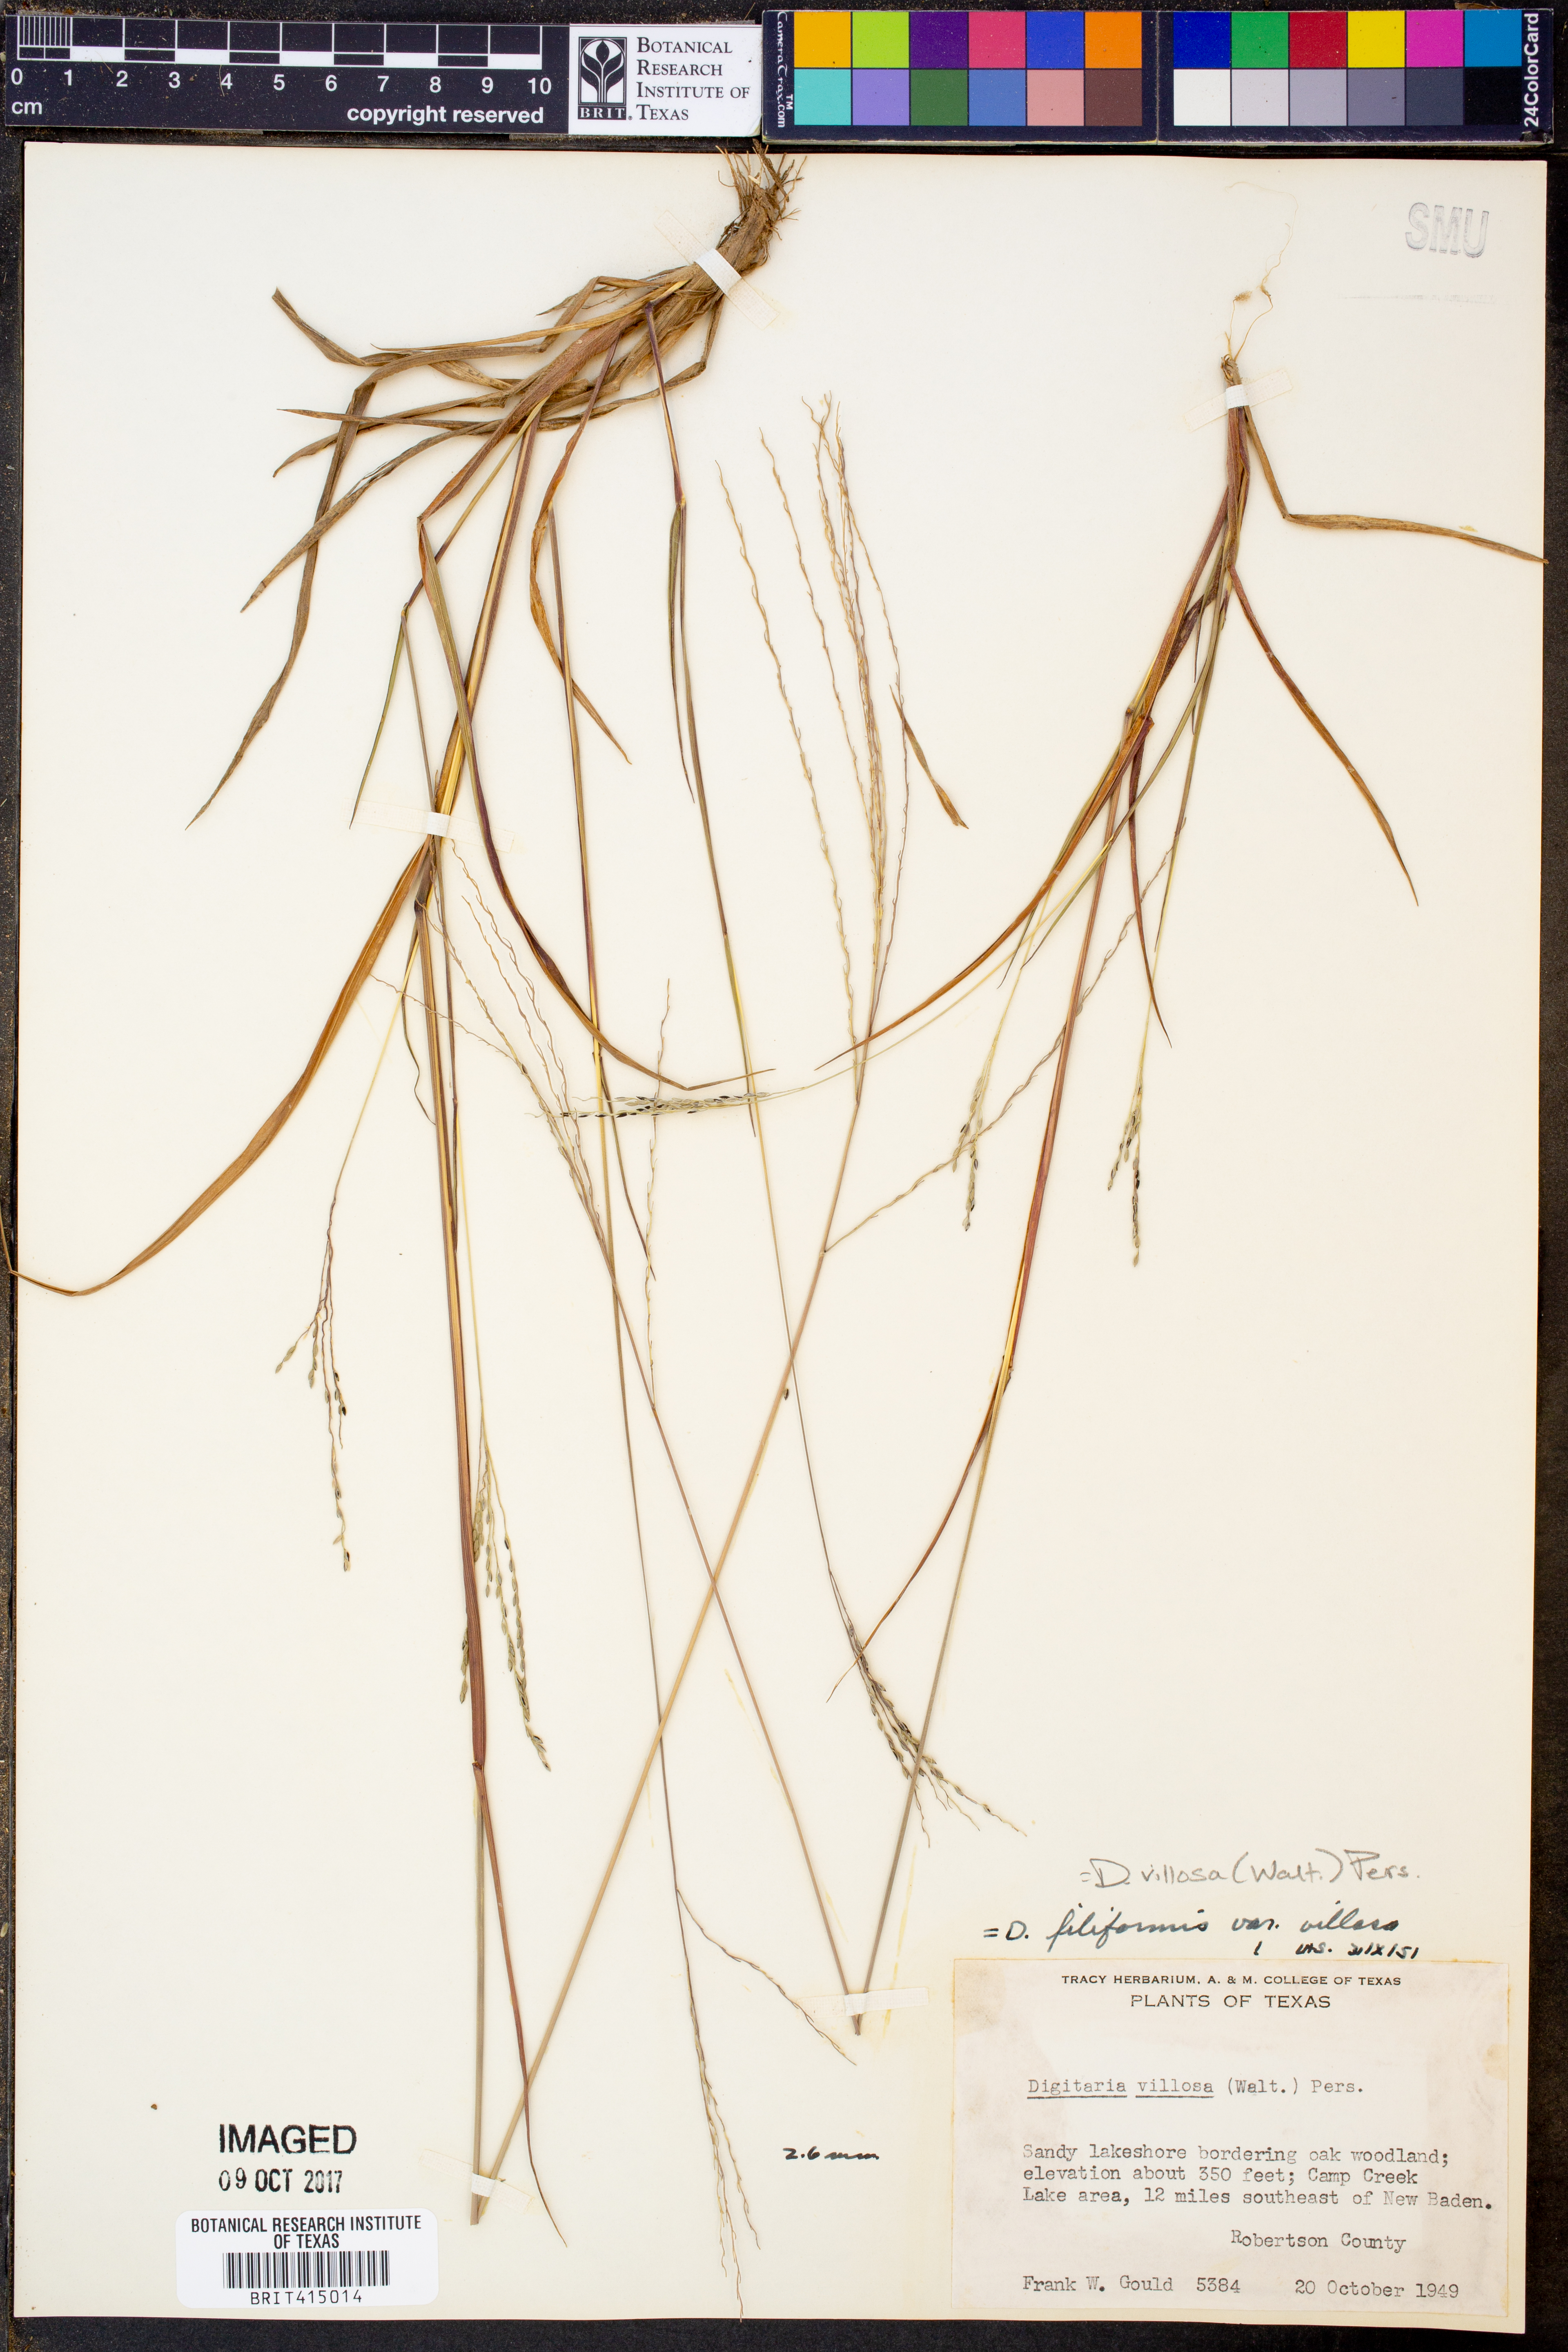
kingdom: Plantae
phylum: Tracheophyta
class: Liliopsida
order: Poales
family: Poaceae
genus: Digitaria
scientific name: Digitaria villosa
